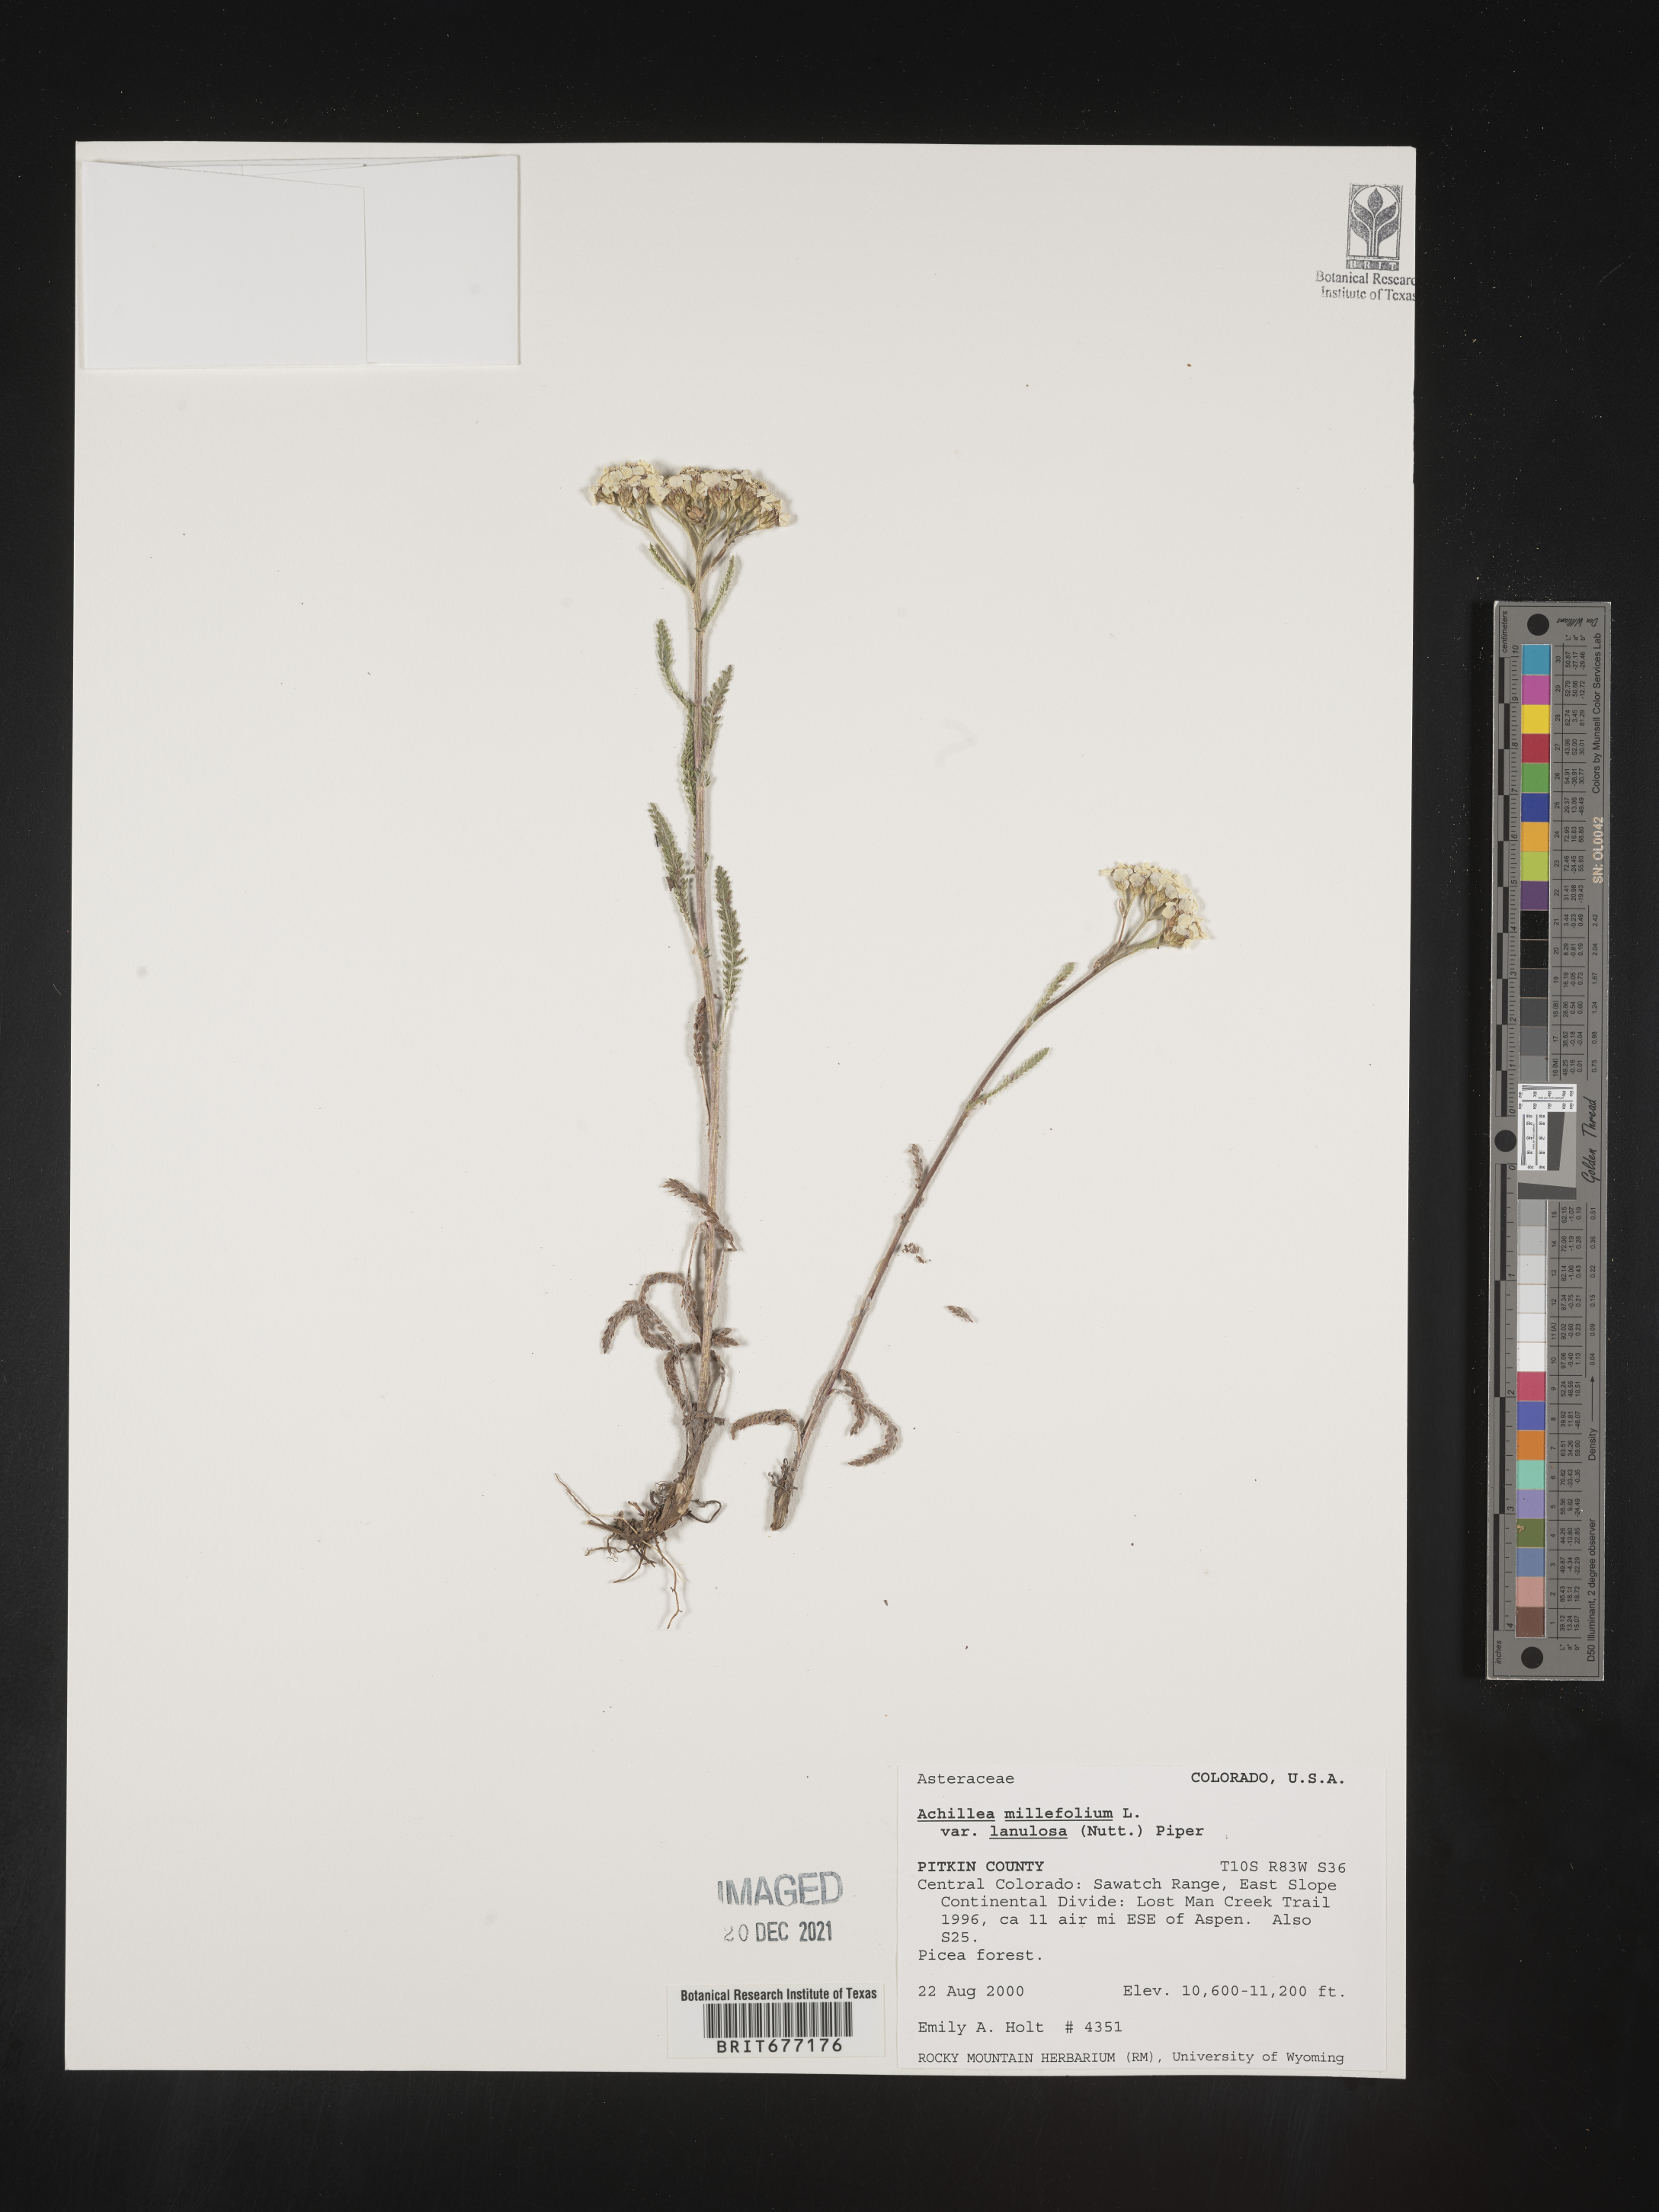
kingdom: Plantae
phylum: Tracheophyta
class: Magnoliopsida
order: Asterales
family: Asteraceae
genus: Achillea
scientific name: Achillea millefolium
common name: Yarrow
